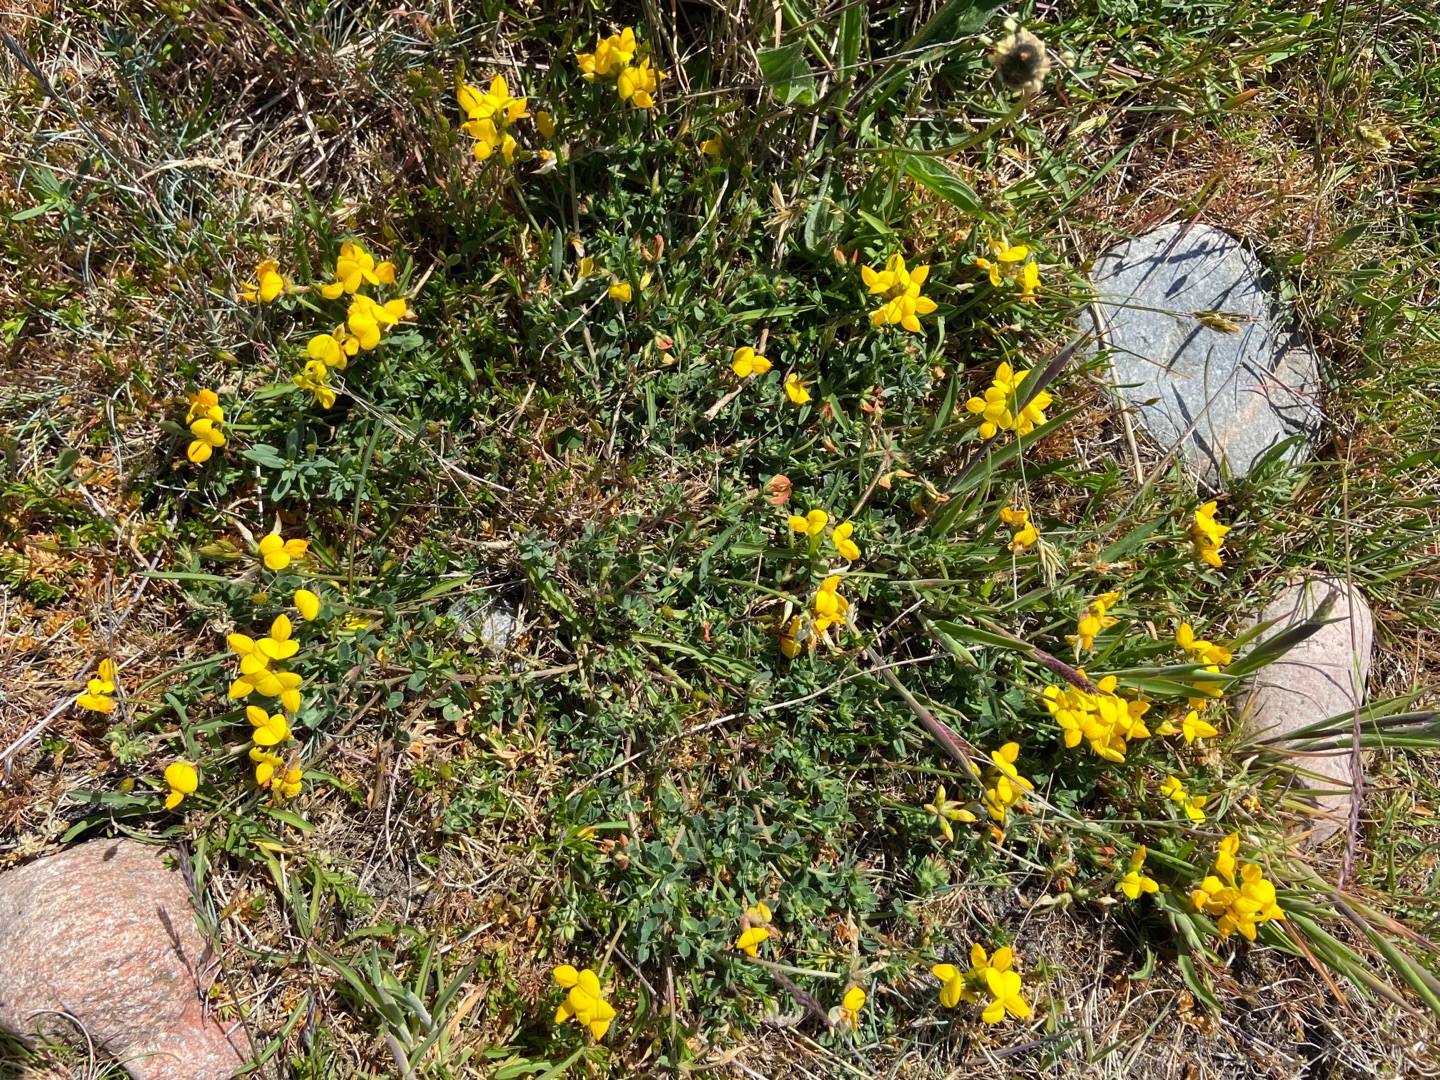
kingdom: Plantae
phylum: Tracheophyta
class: Magnoliopsida
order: Fabales
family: Fabaceae
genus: Lotus
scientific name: Lotus corniculatus
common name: Almindelig kællingetand
